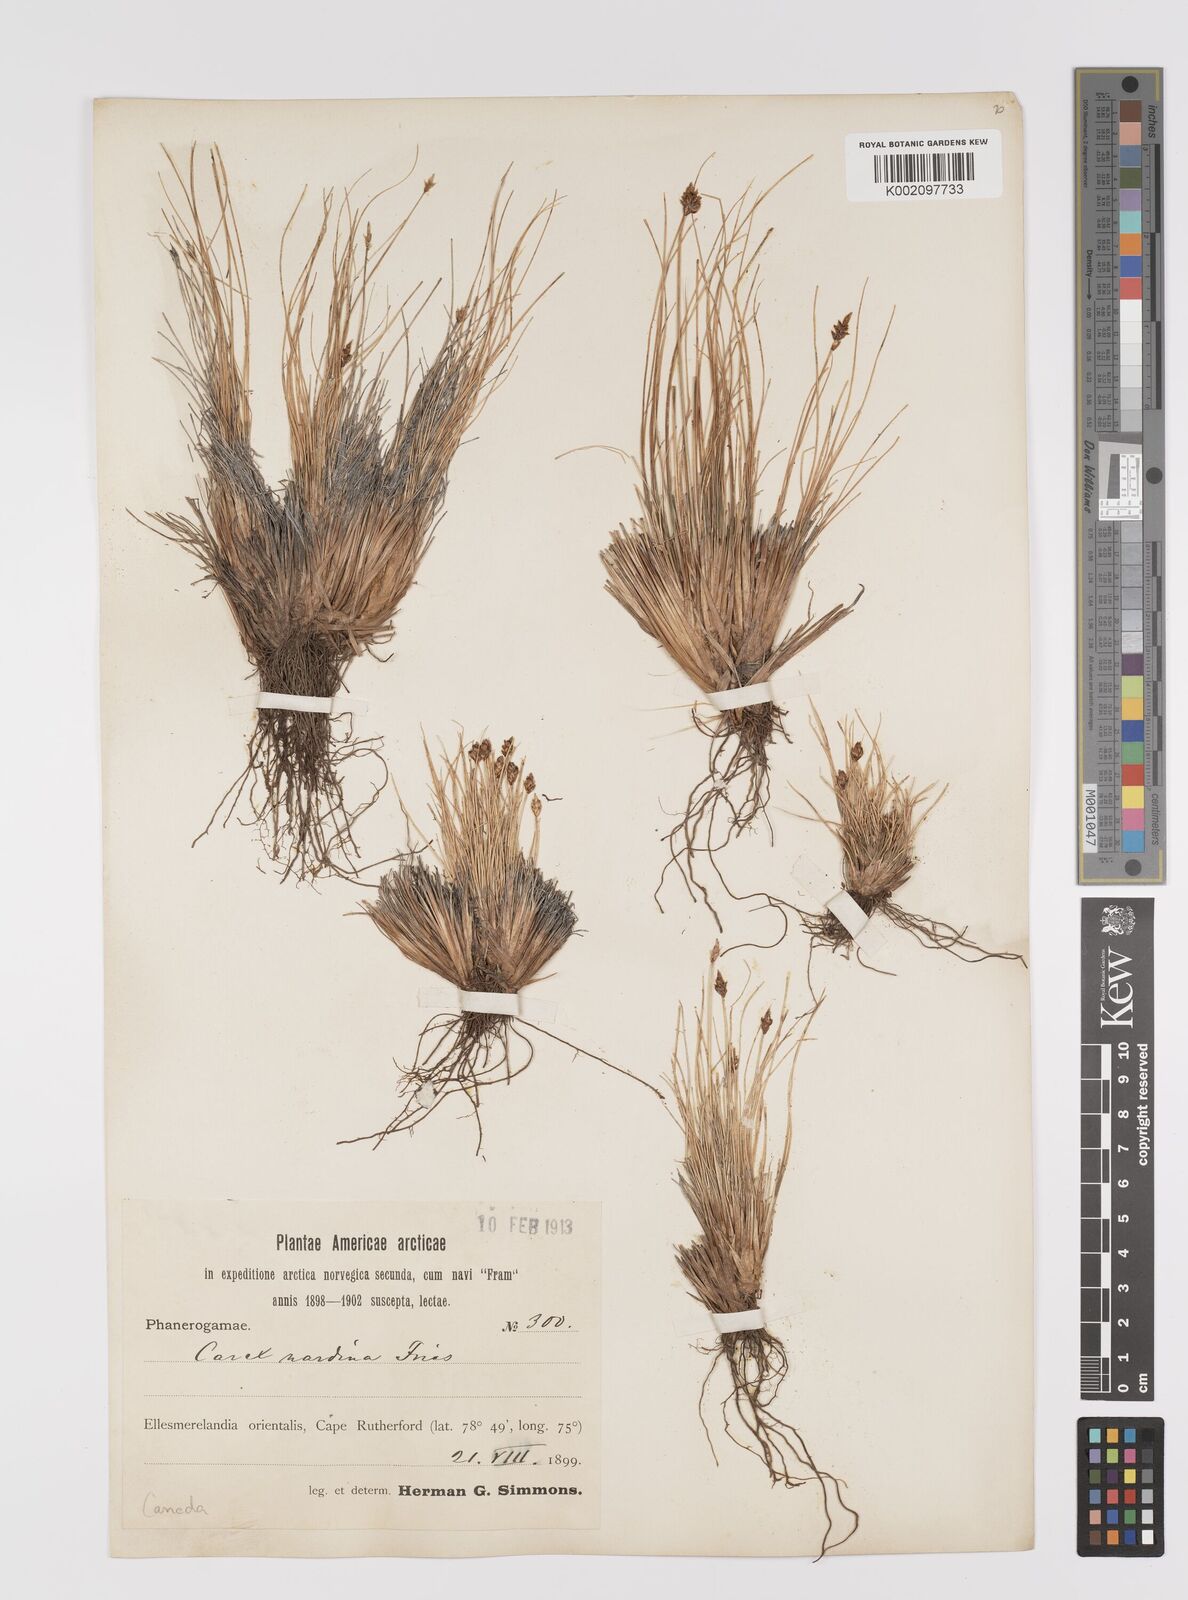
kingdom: Plantae
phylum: Tracheophyta
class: Liliopsida
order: Poales
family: Cyperaceae
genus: Carex
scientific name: Carex nardina
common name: Nard sedge
